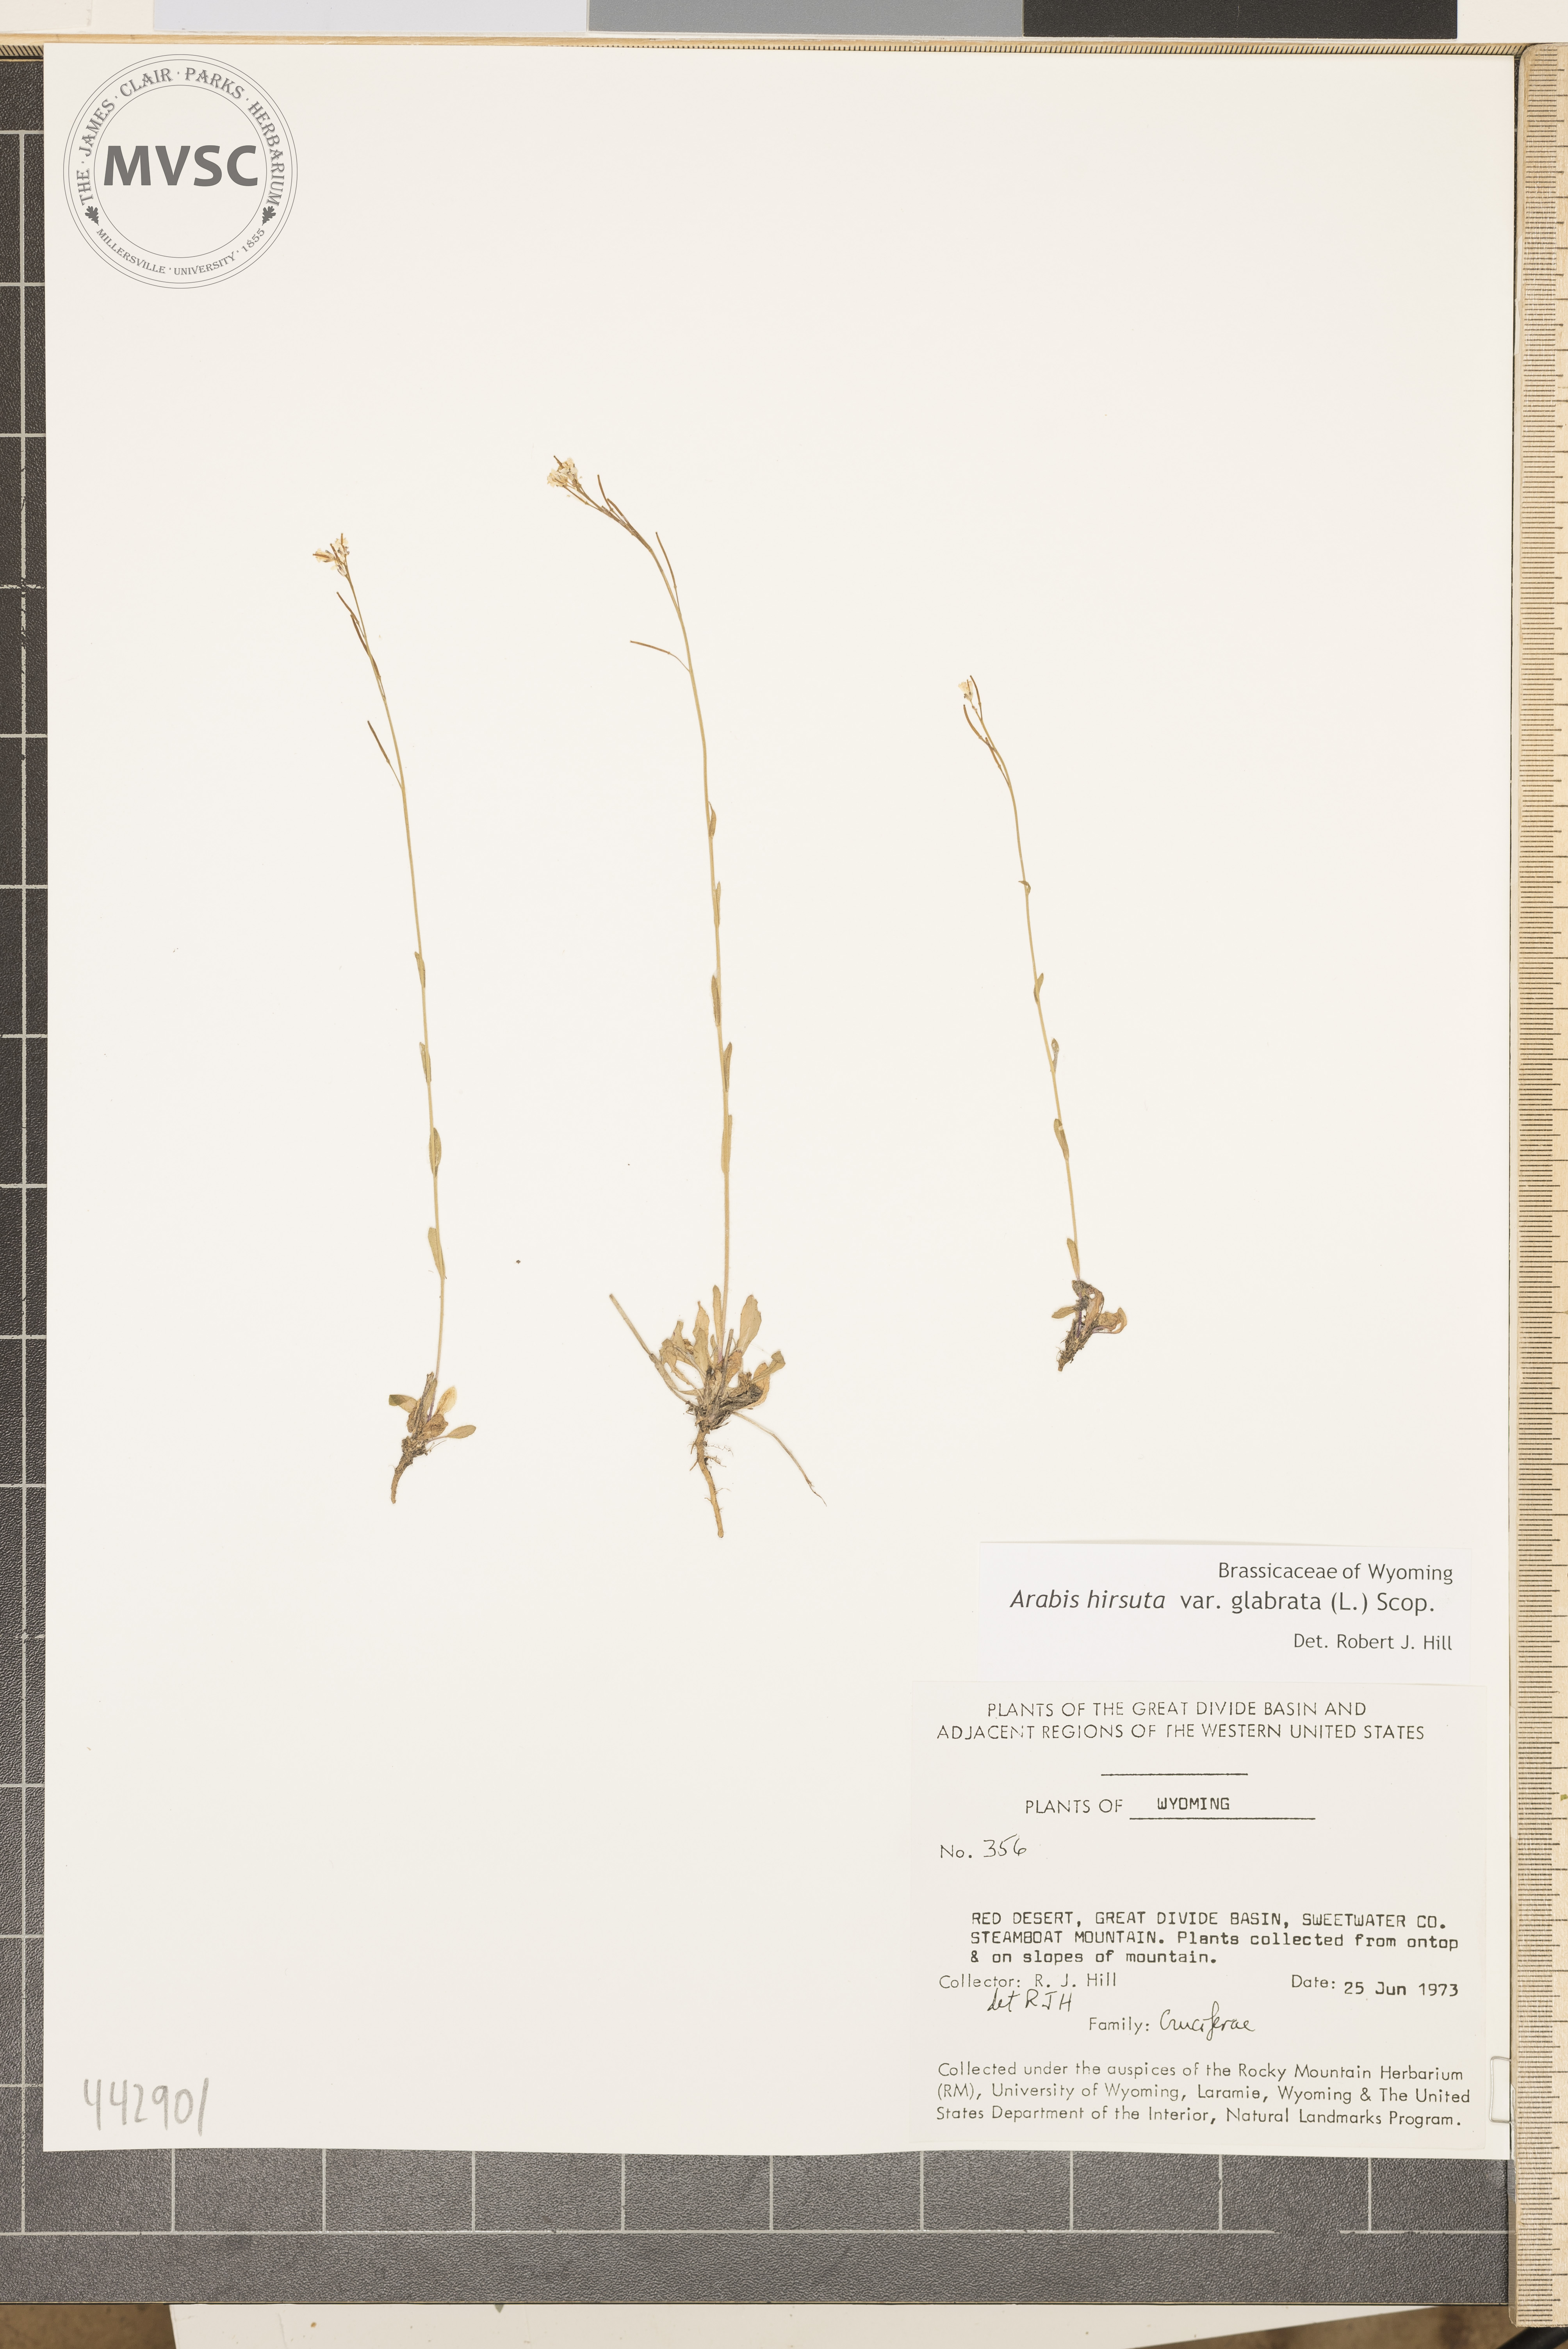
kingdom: Plantae
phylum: Tracheophyta
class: Magnoliopsida
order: Brassicales
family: Brassicaceae
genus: Arabis
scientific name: Arabis hirsuta
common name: Hairy rock-cress
